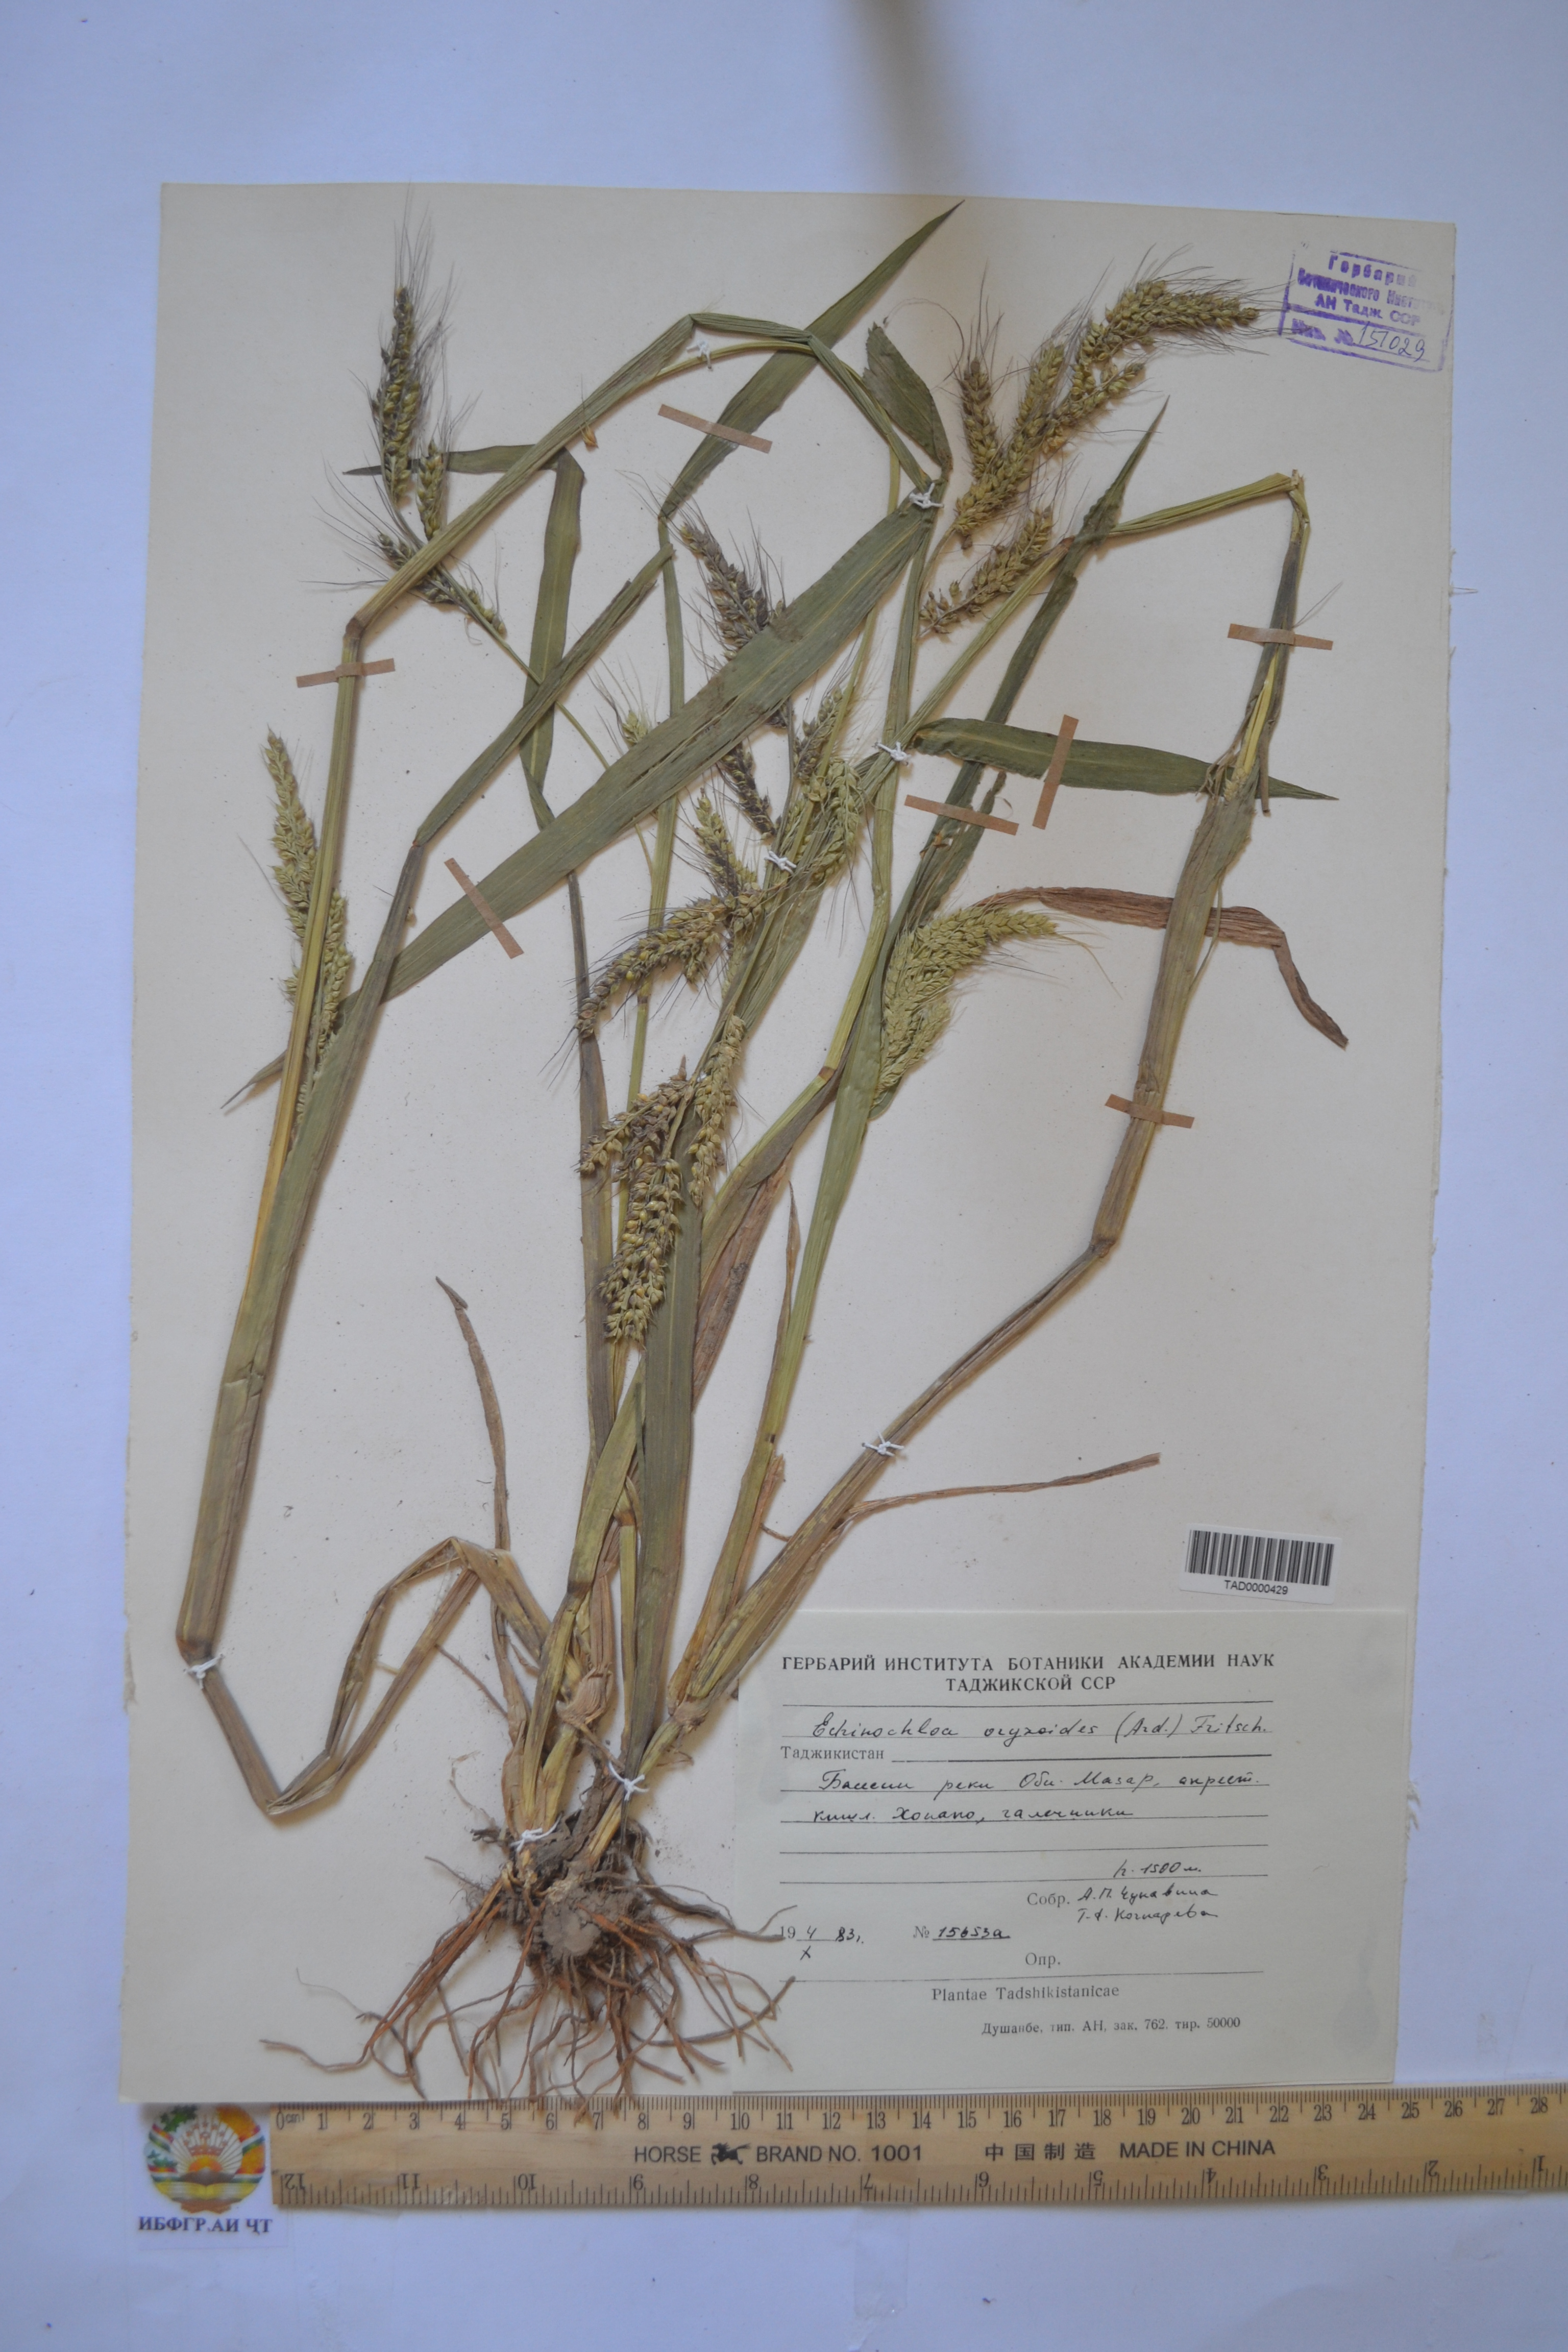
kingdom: Plantae
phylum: Tracheophyta
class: Liliopsida
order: Poales
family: Poaceae
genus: Echinochloa
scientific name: Echinochloa oryzoides
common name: Early water grass
